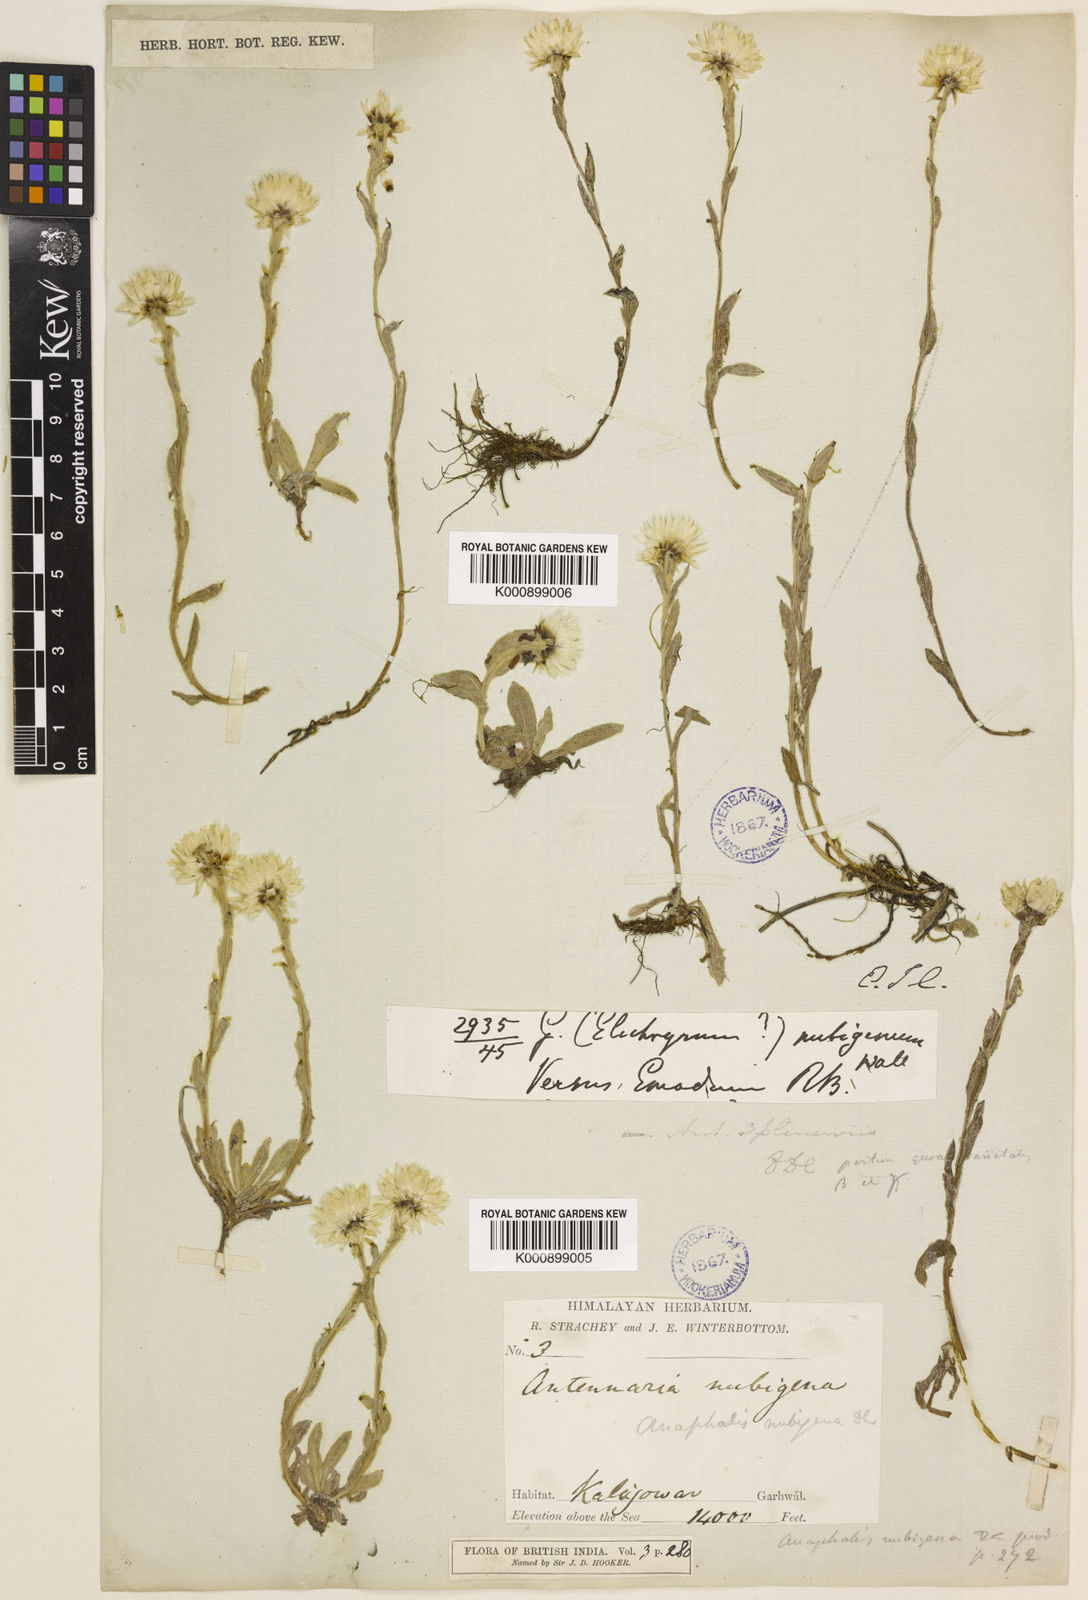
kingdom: Plantae
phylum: Tracheophyta
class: Magnoliopsida
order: Asterales
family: Asteraceae
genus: Anaphalis
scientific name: Anaphalis nepalensis
